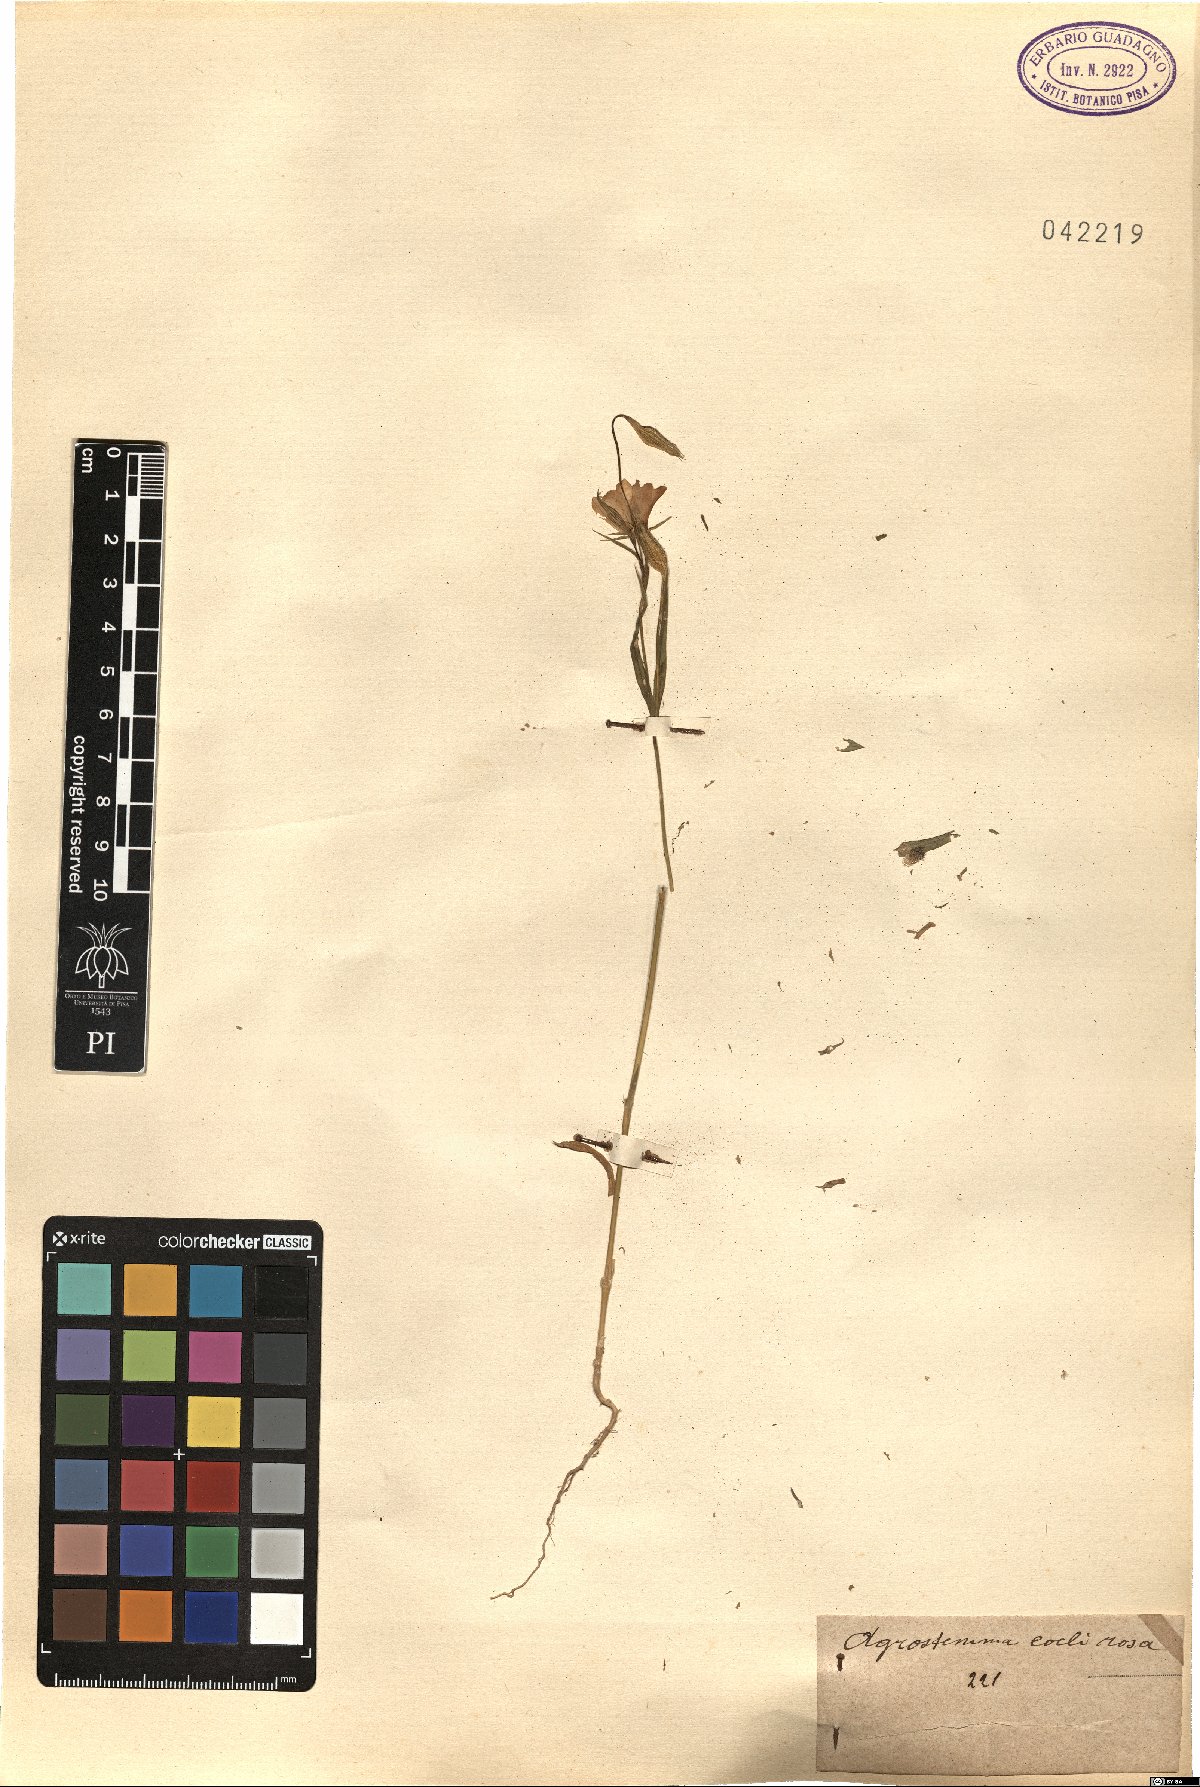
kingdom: Plantae
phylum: Tracheophyta
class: Magnoliopsida
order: Caryophyllales
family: Caryophyllaceae
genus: Eudianthe
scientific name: Eudianthe coeli-rosa
